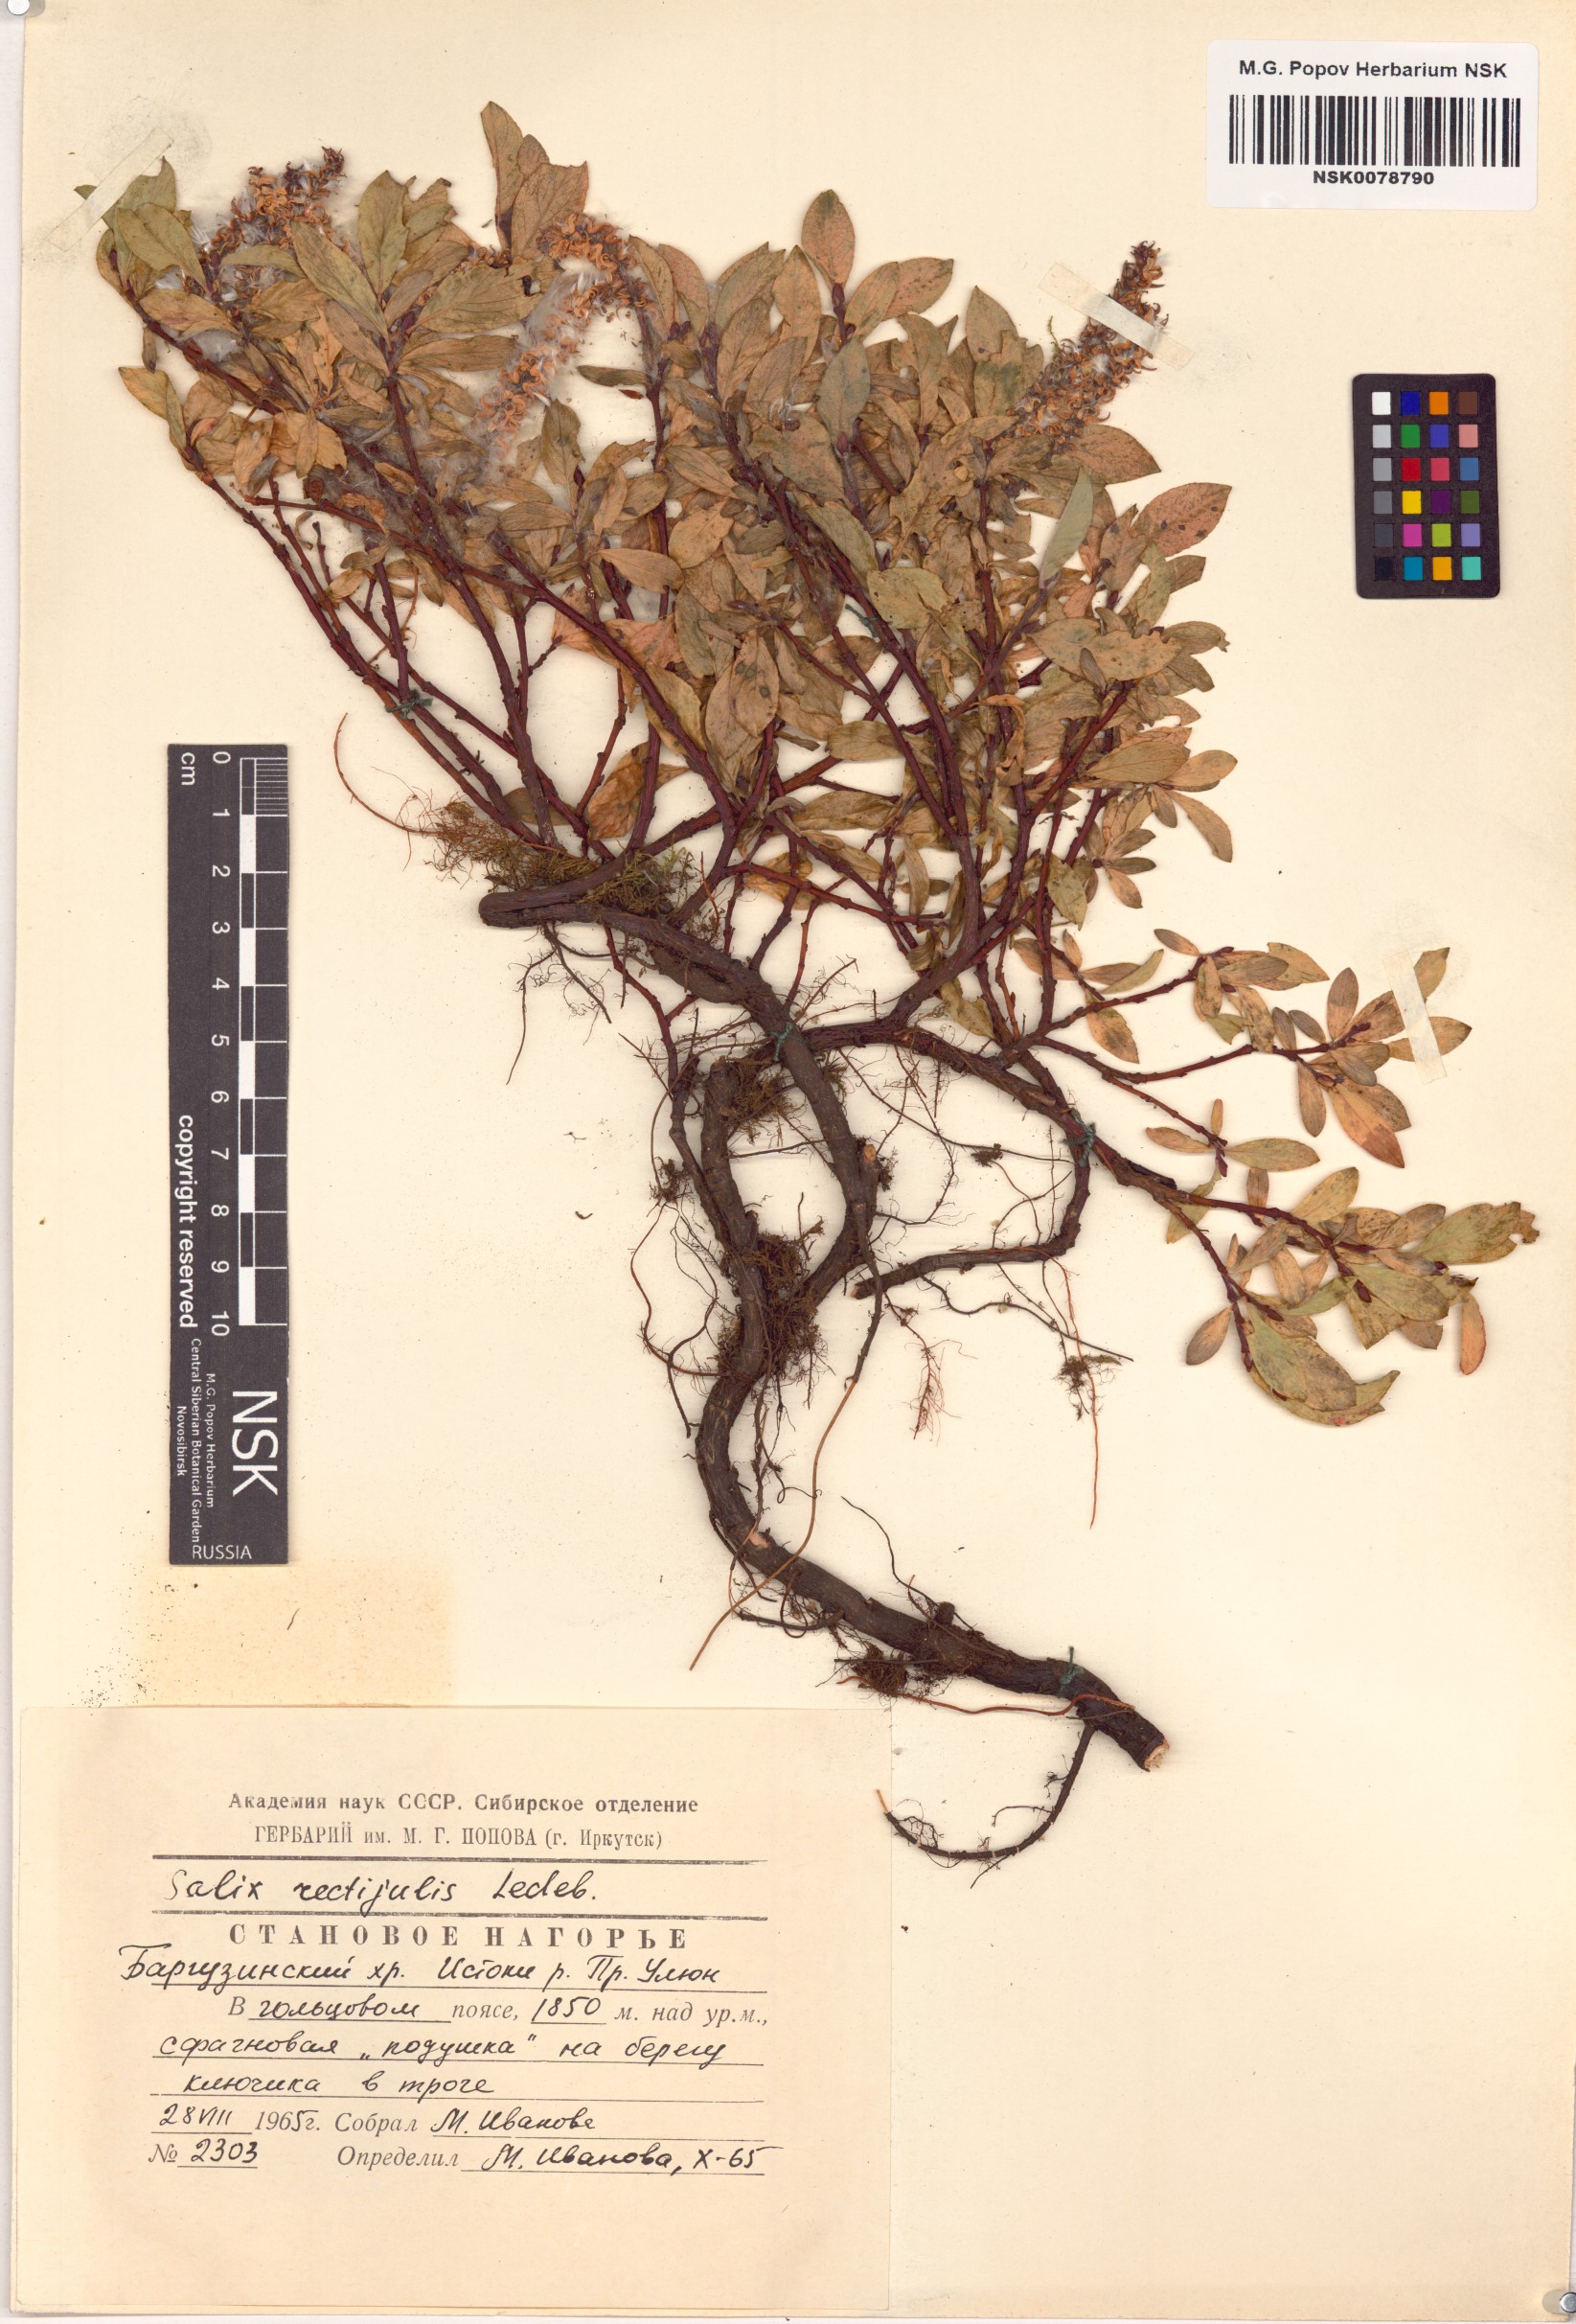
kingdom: Plantae
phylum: Tracheophyta
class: Magnoliopsida
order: Malpighiales
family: Salicaceae
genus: Salix
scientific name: Salix rectijulis
